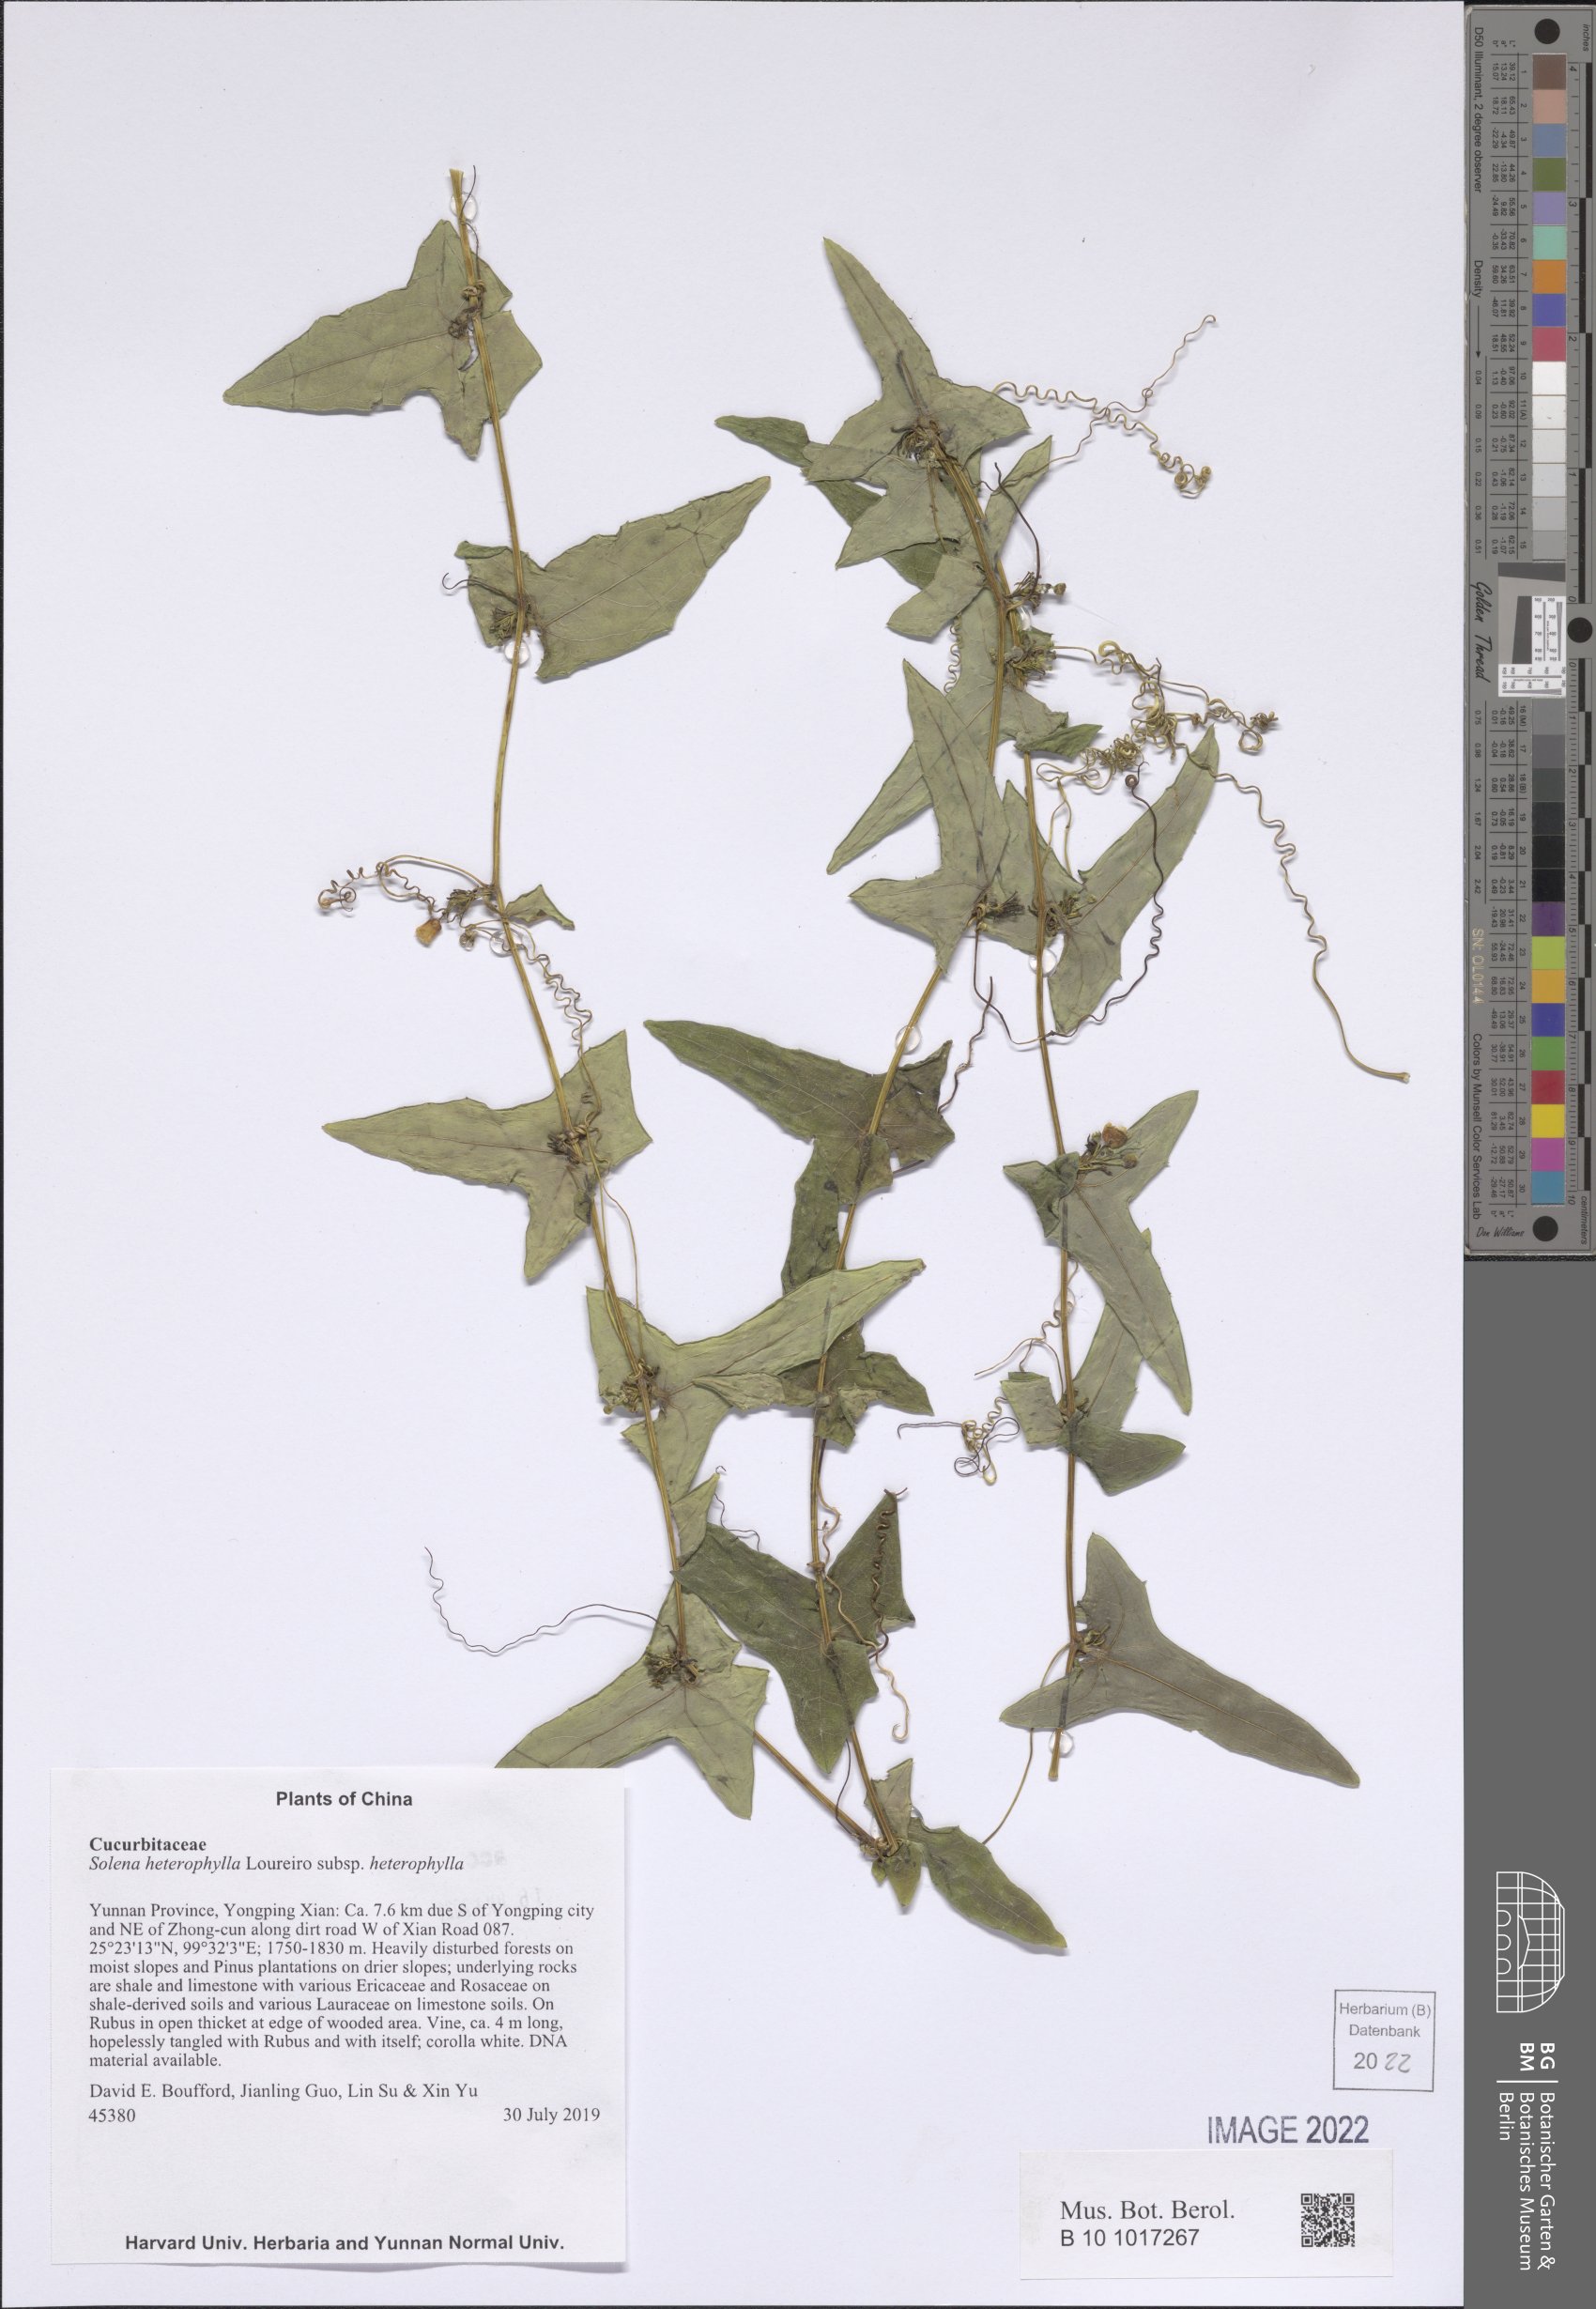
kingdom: Plantae
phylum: Tracheophyta
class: Magnoliopsida
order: Cucurbitales
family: Cucurbitaceae
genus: Solena
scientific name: Solena heterophylla
